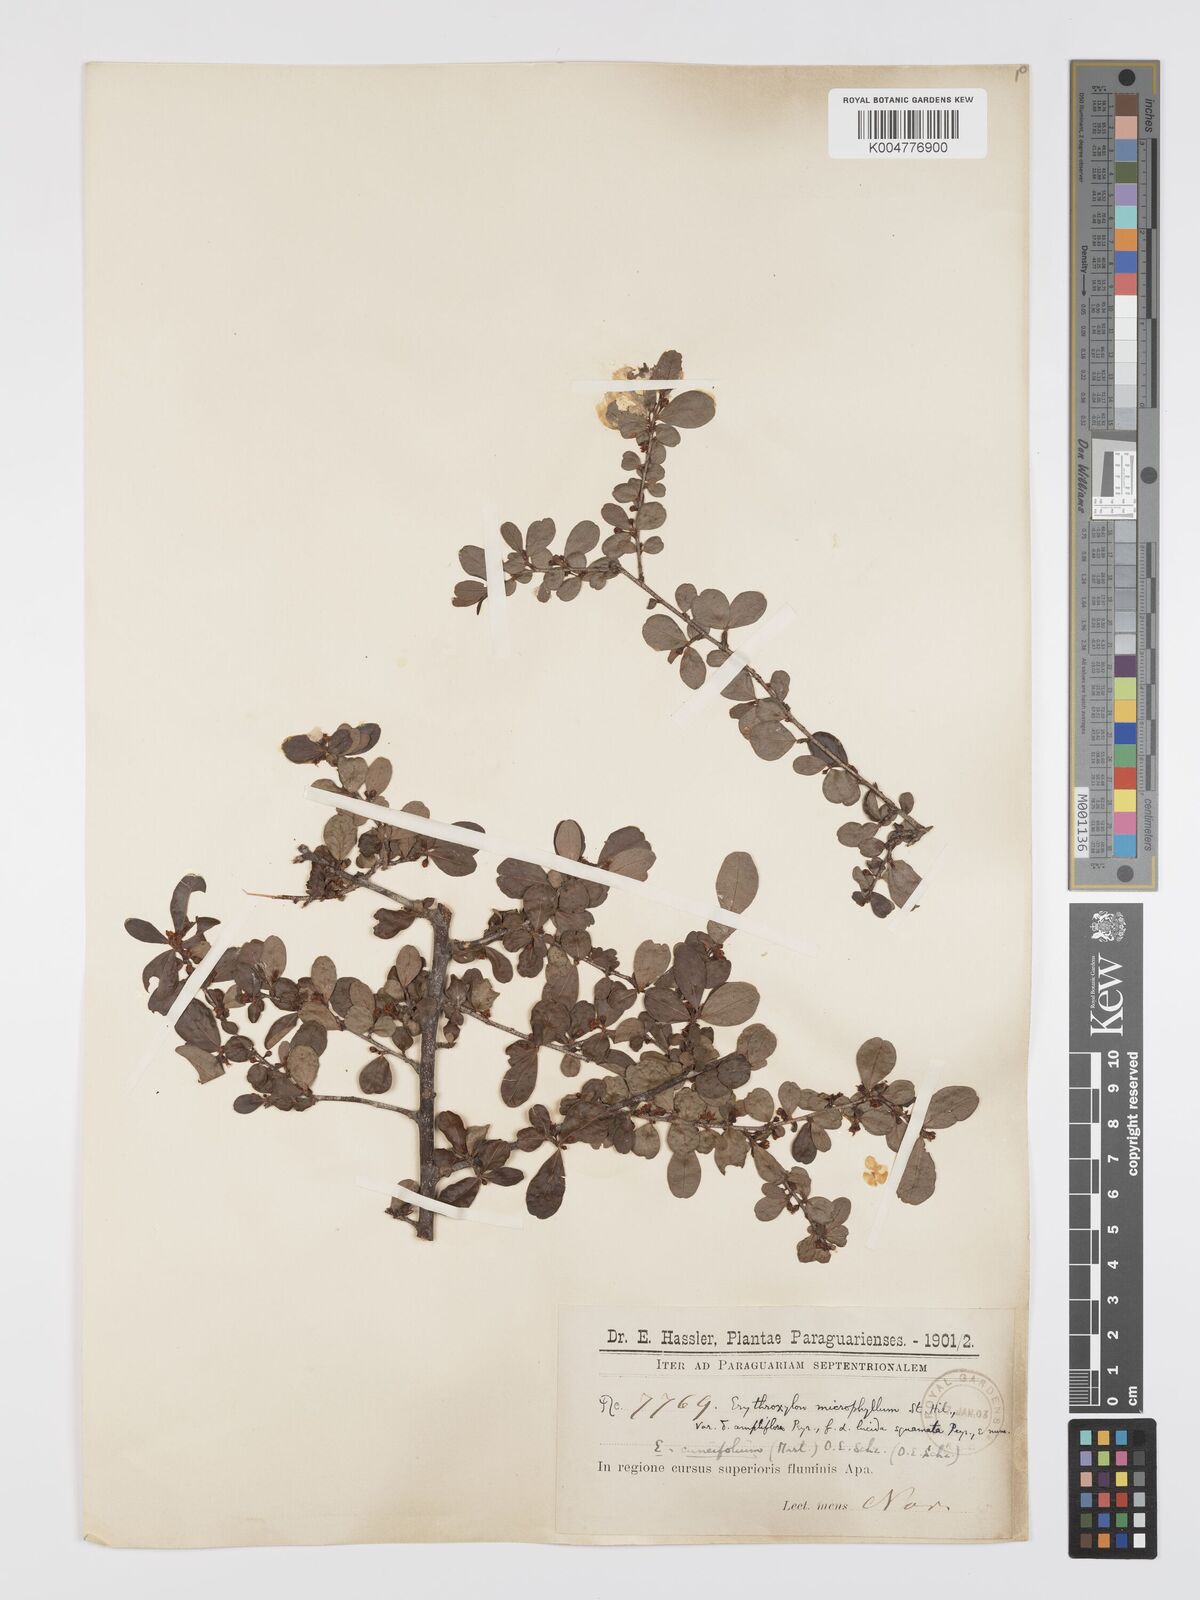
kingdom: Plantae
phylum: Tracheophyta
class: Magnoliopsida
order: Malpighiales
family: Erythroxylaceae
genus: Erythroxylum
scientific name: Erythroxylum cuneifolium
